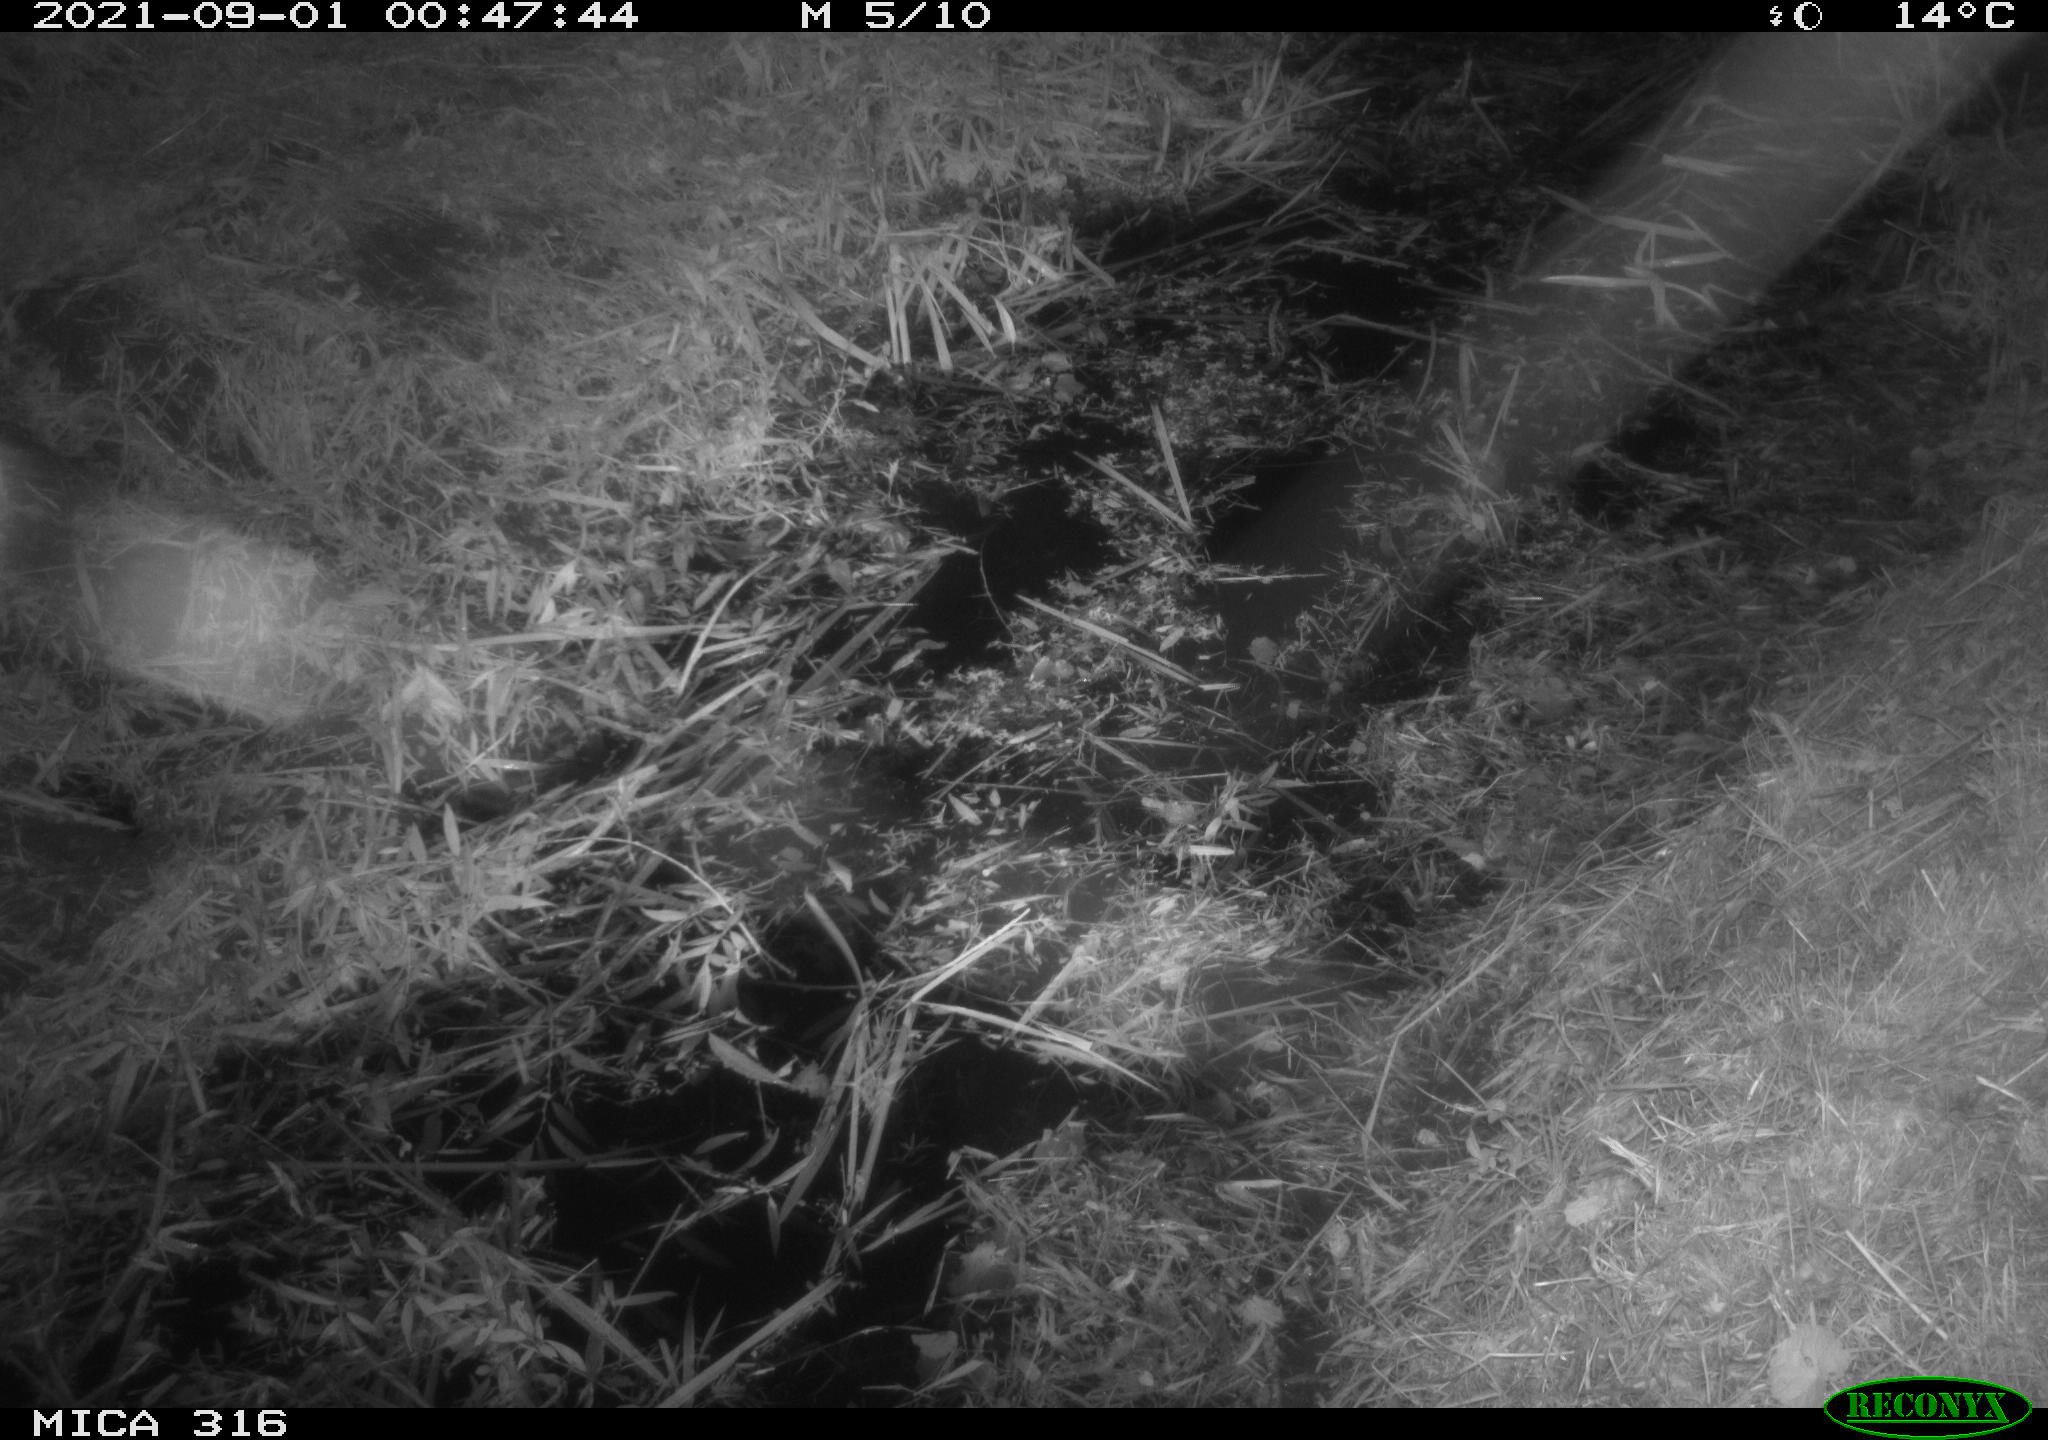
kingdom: Animalia
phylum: Chordata
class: Mammalia
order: Rodentia
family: Muridae
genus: Rattus
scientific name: Rattus norvegicus
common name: Brown rat
